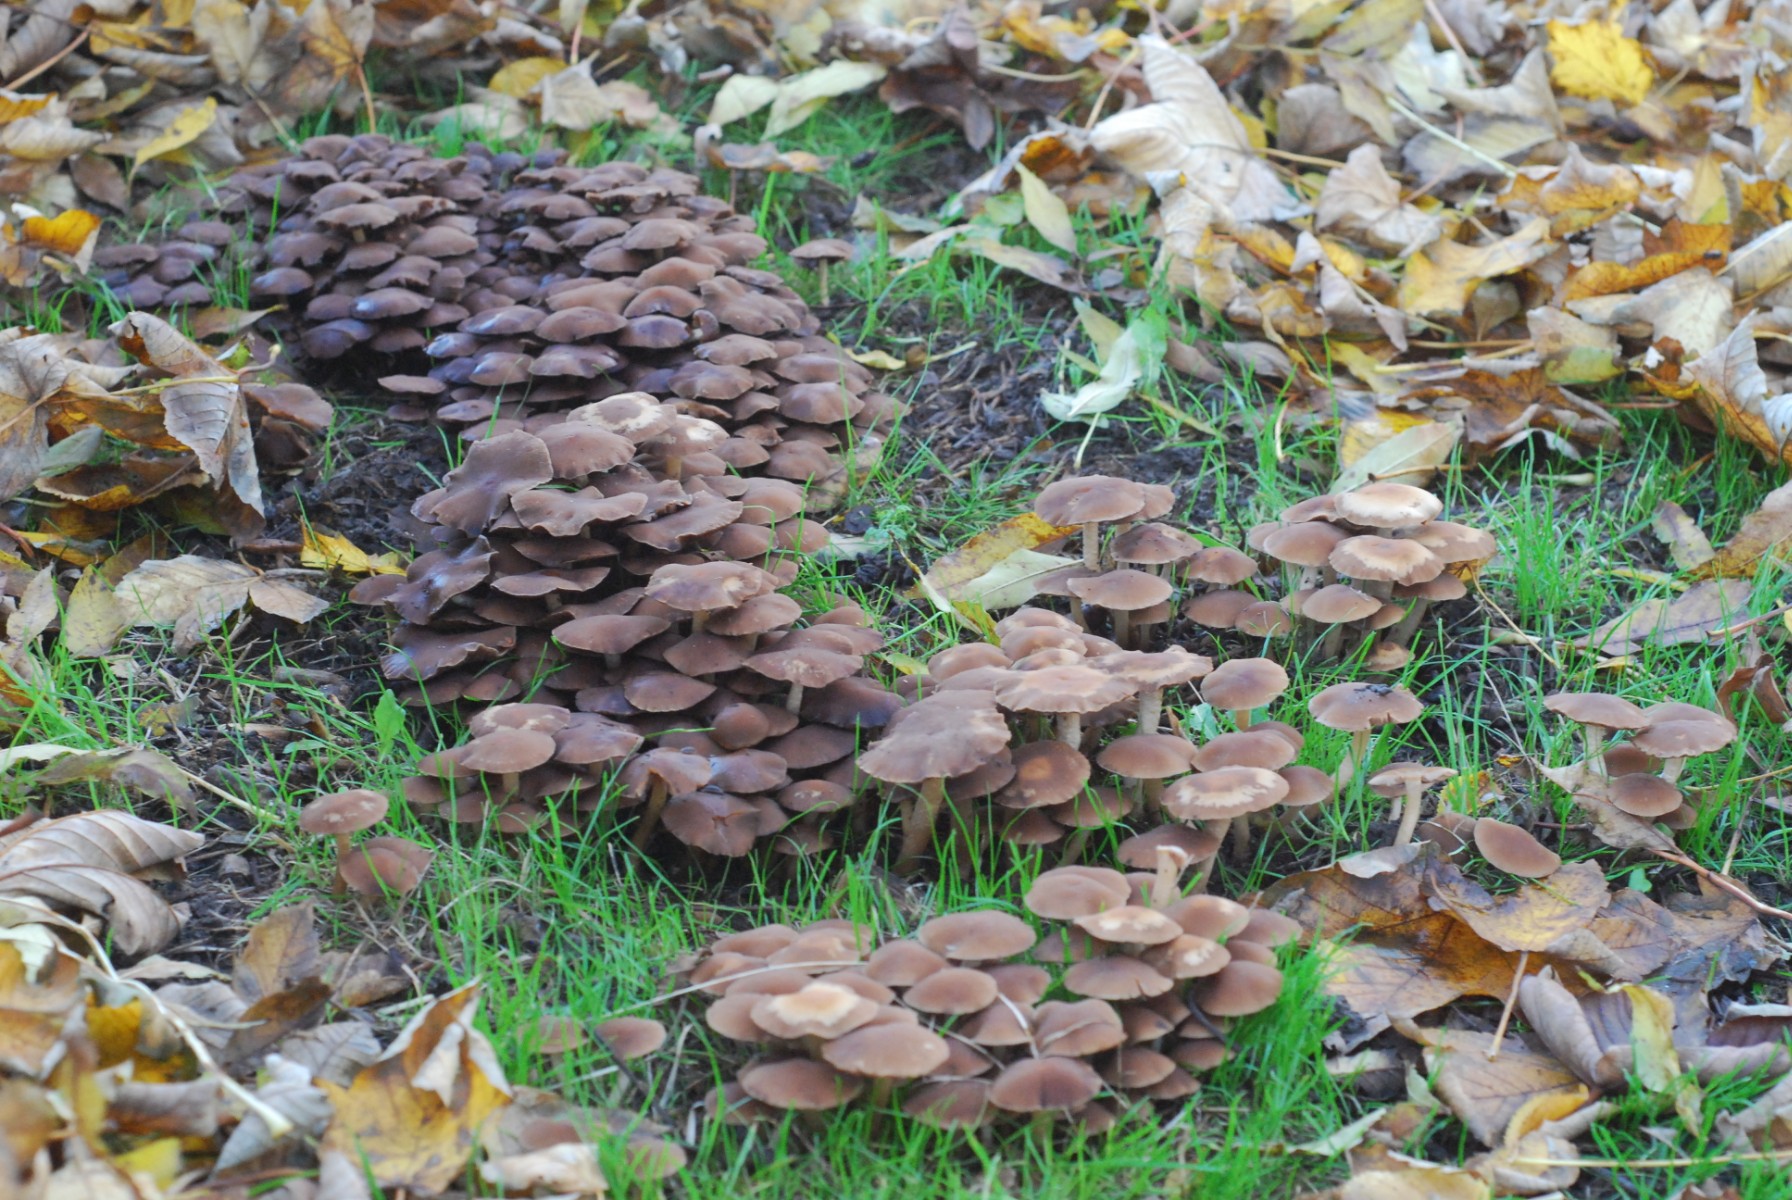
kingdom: Fungi
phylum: Basidiomycota
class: Agaricomycetes
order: Agaricales
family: Psathyrellaceae
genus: Psathyrella
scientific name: Psathyrella piluliformis
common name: lysstokket mørkhat
